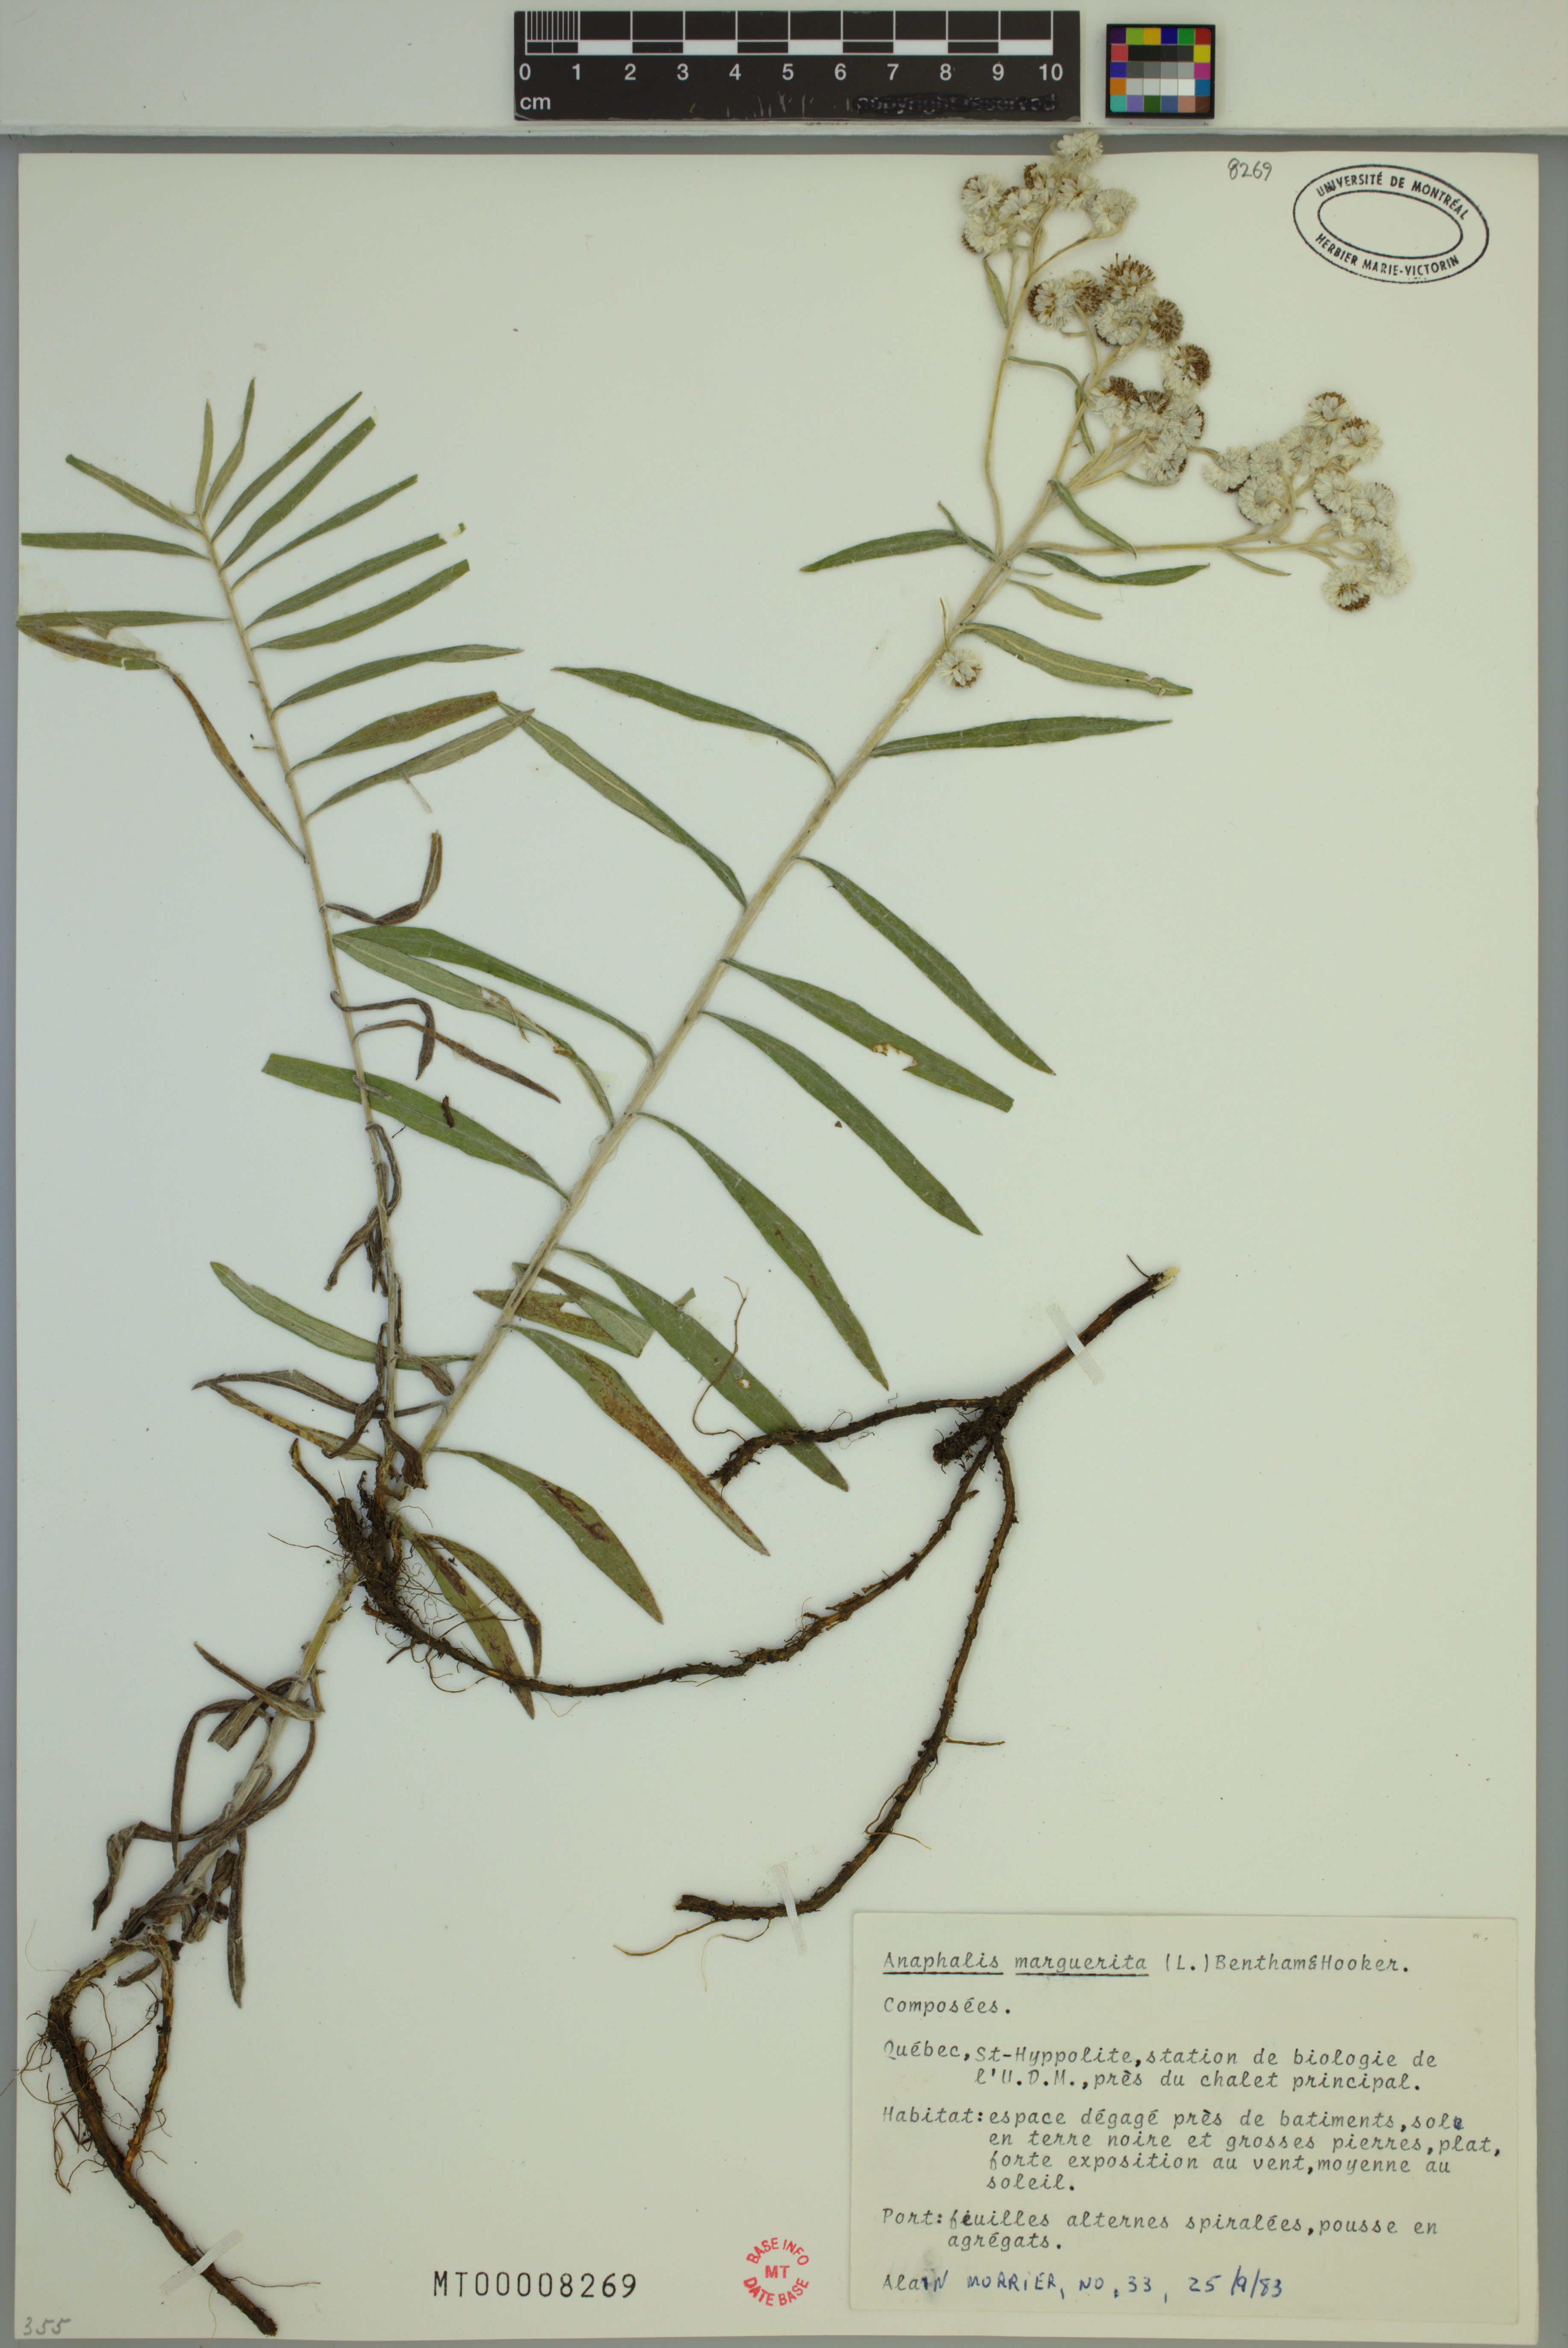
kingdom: Plantae
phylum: Tracheophyta
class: Magnoliopsida
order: Asterales
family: Asteraceae
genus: Anaphalis
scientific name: Anaphalis margaritacea
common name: Pearly everlasting
